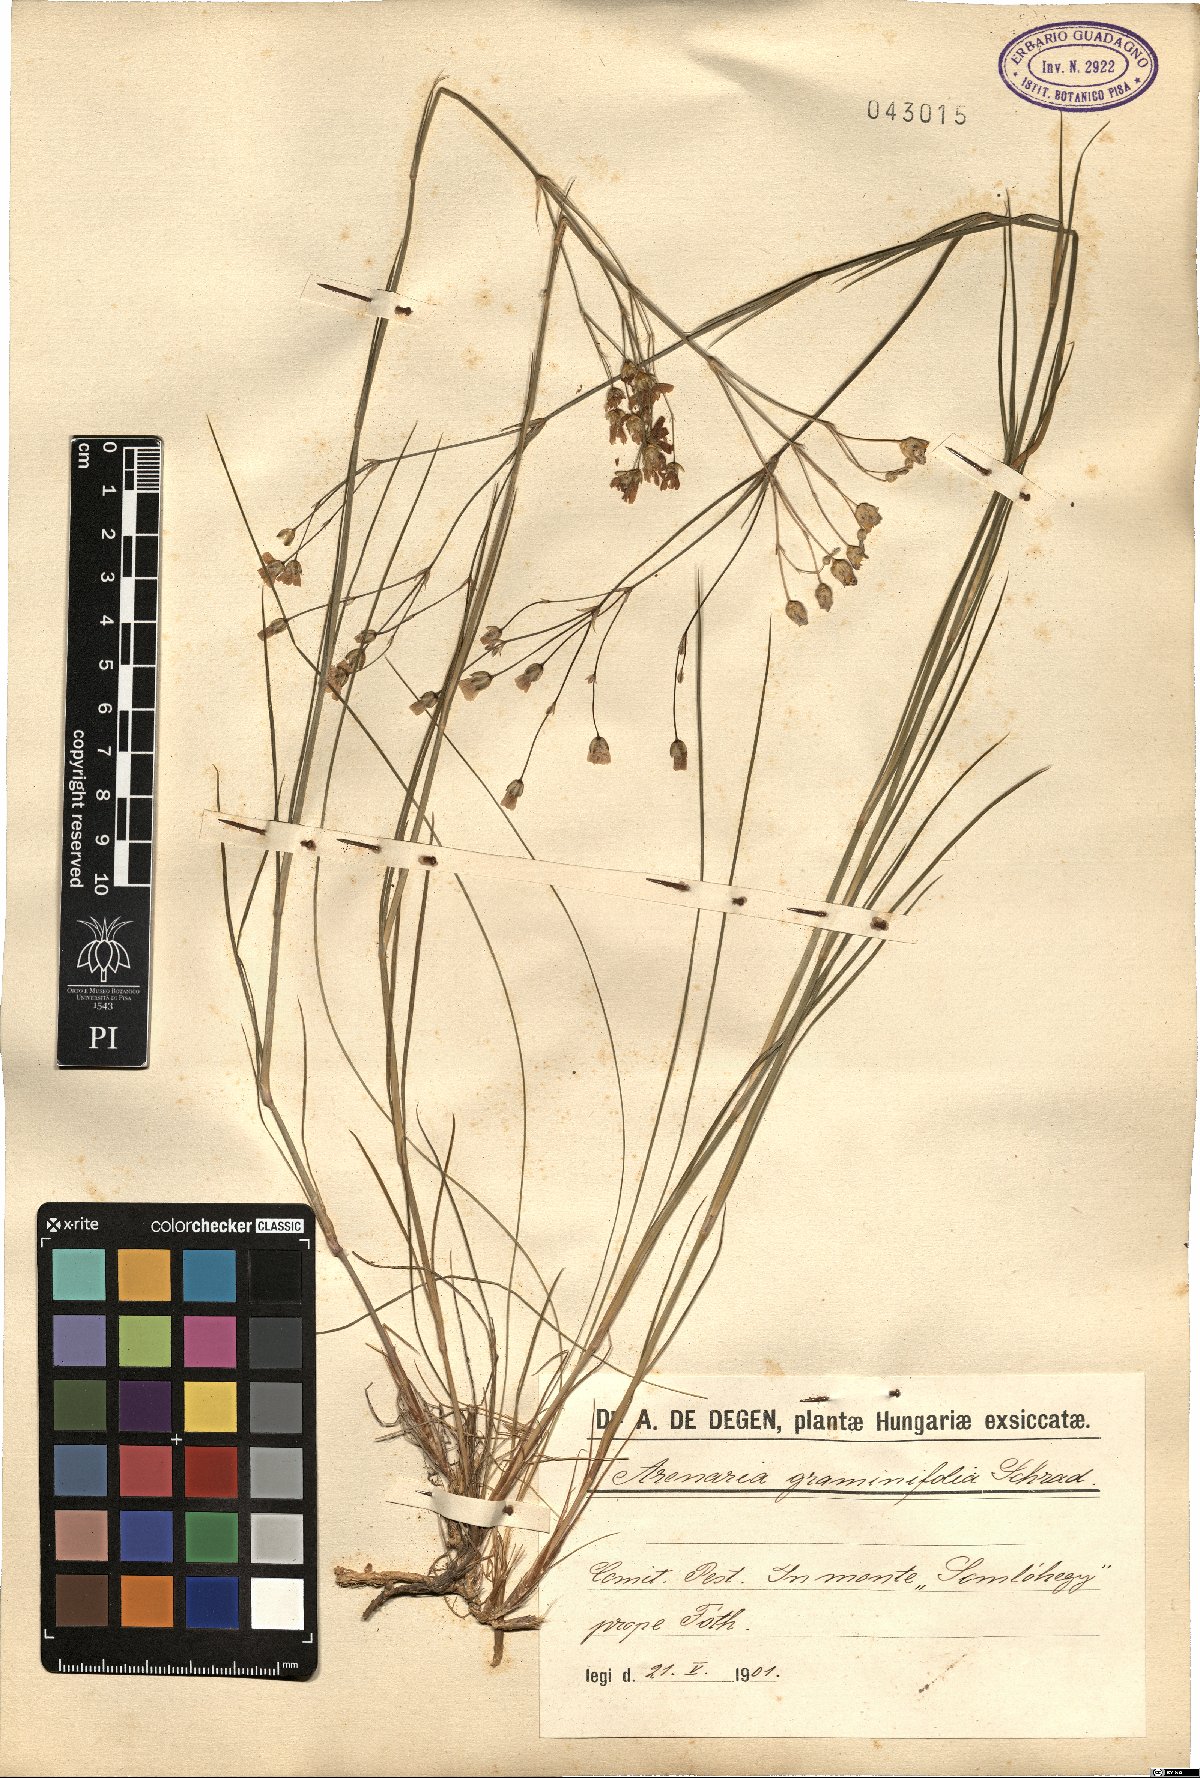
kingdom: Plantae
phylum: Tracheophyta
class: Magnoliopsida
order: Caryophyllales
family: Caryophyllaceae
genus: Eremogone
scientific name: Eremogone saxatilis
